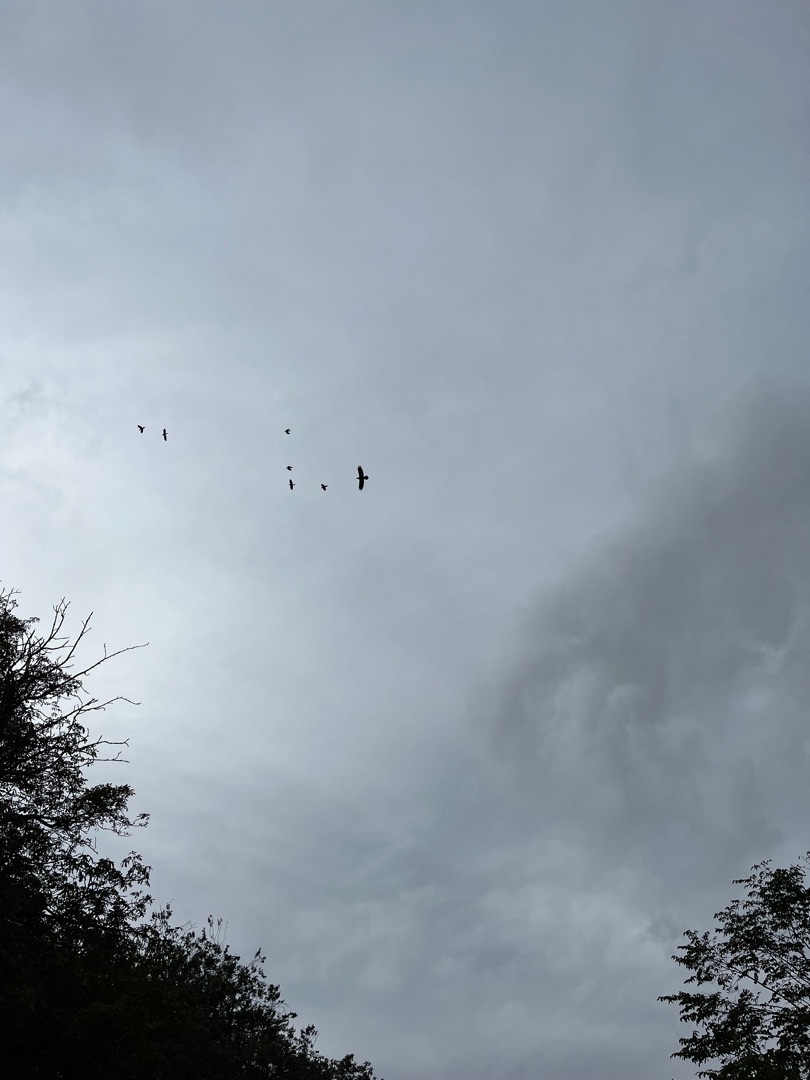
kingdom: Animalia
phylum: Chordata
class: Aves
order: Passeriformes
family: Corvidae
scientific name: Corvidae
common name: Kragefugle
